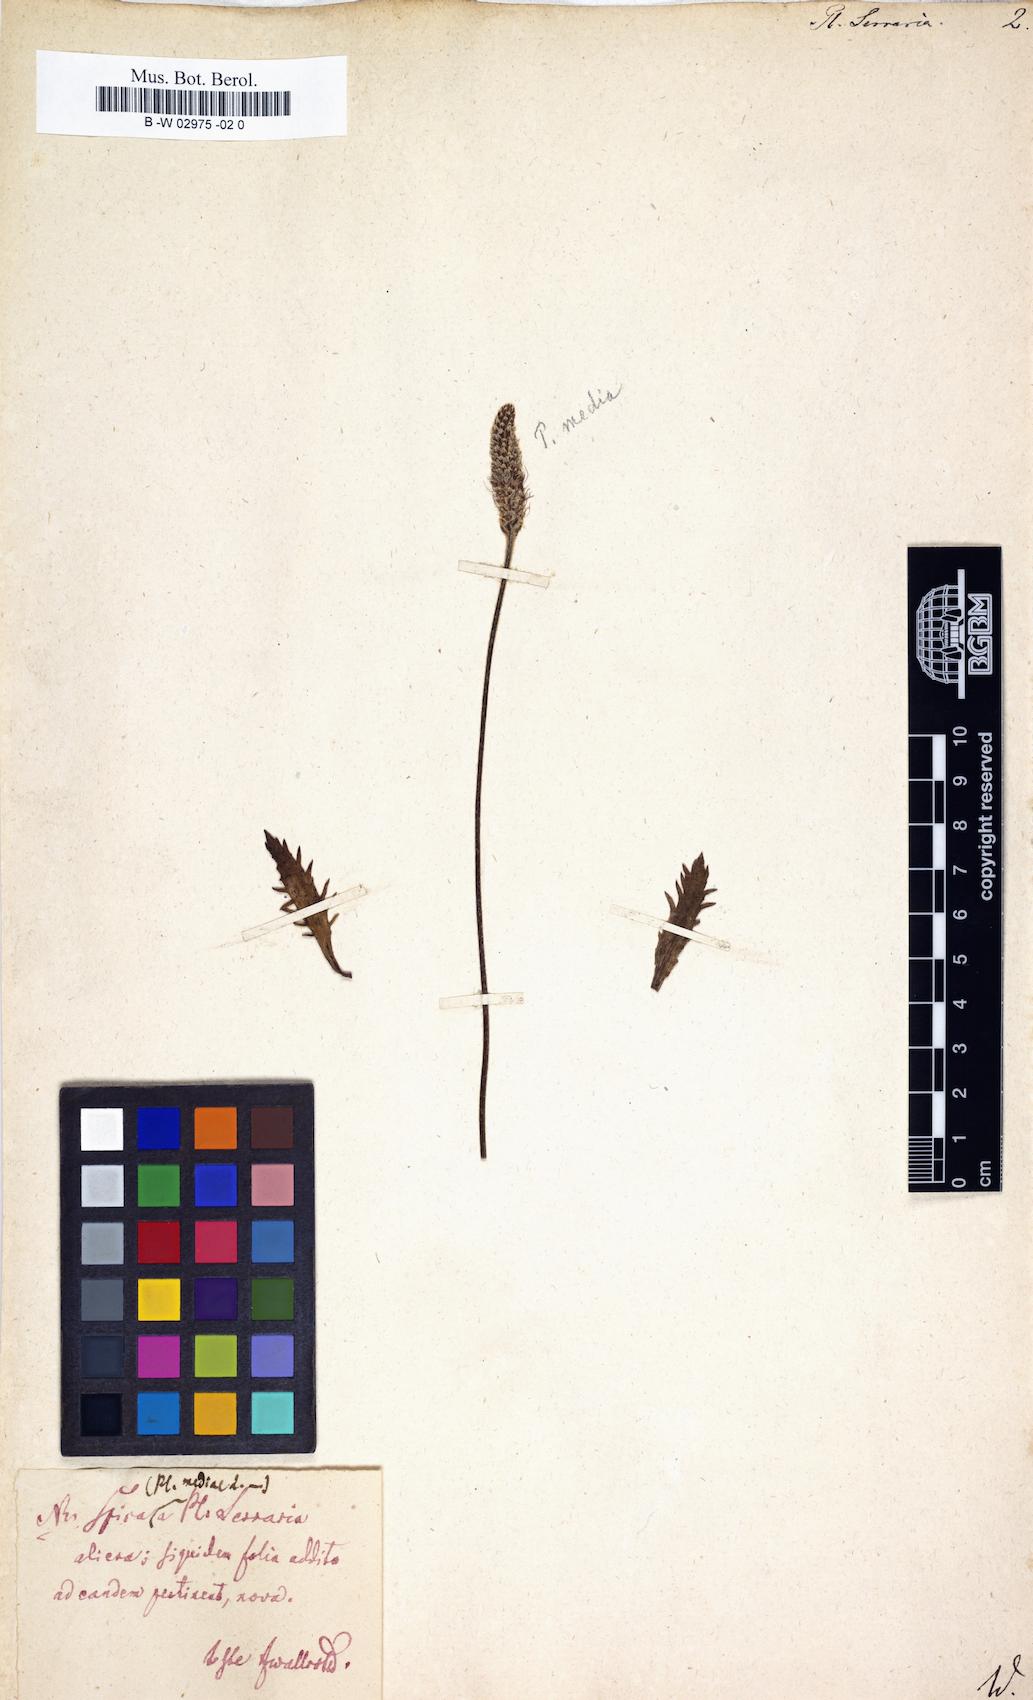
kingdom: Plantae
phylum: Tracheophyta
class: Magnoliopsida
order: Lamiales
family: Plantaginaceae
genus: Plantago
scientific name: Plantago serraria
